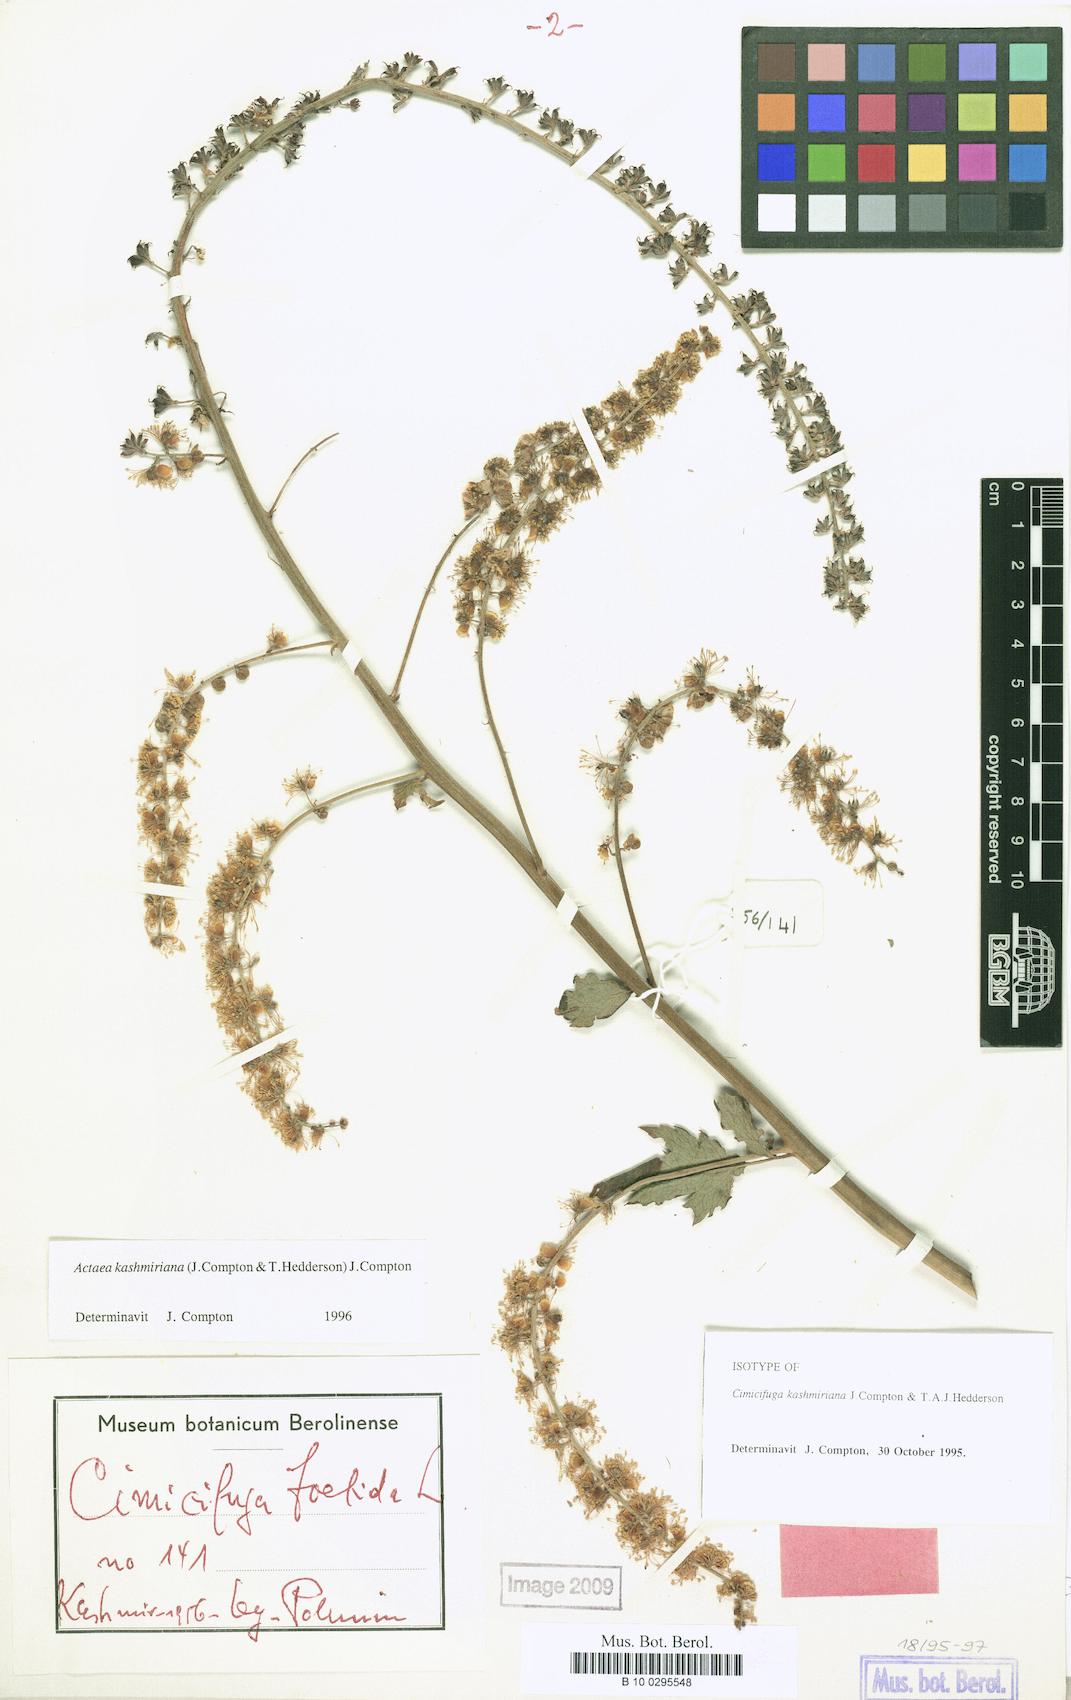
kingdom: Plantae
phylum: Tracheophyta
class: Magnoliopsida
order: Ranunculales
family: Ranunculaceae
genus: Actaea
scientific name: Actaea kashmiriana
